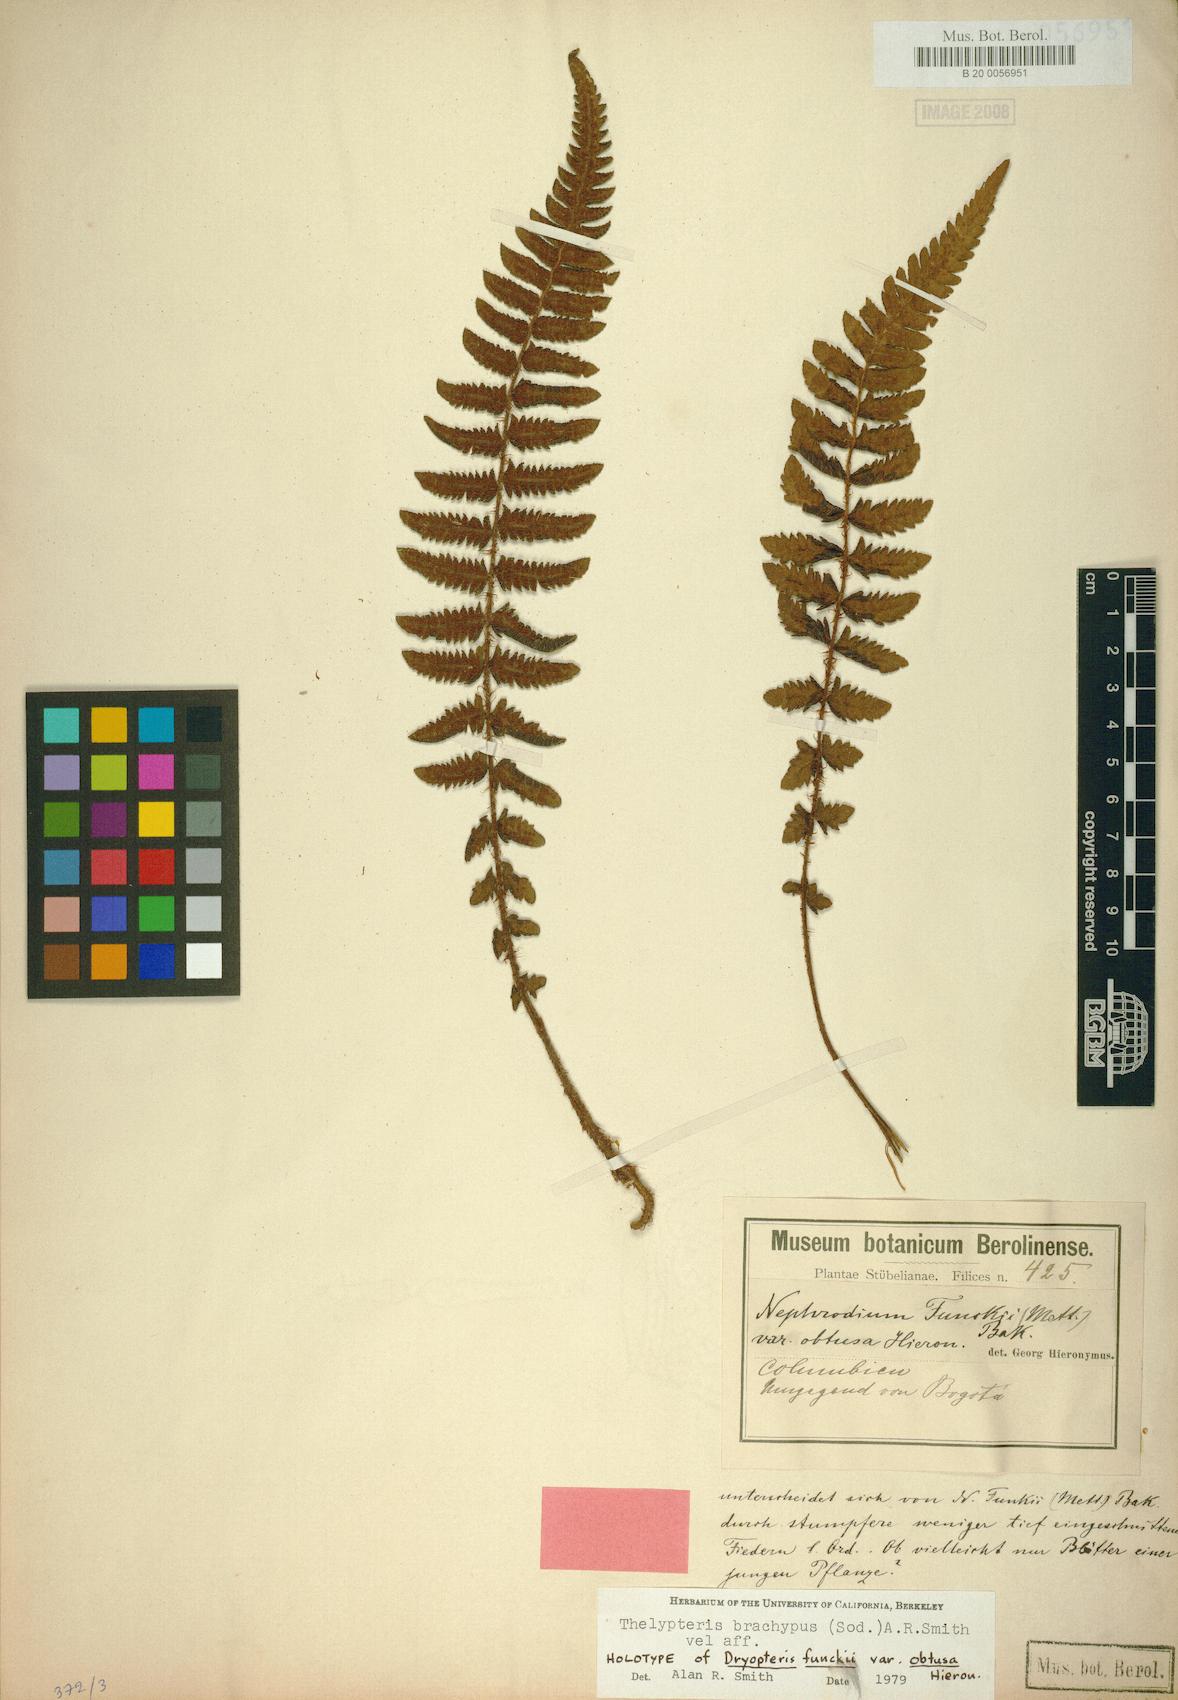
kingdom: Plantae
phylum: Tracheophyta
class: Polypodiopsida
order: Polypodiales
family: Thelypteridaceae
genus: Amauropelta
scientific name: Amauropelta brachypus
